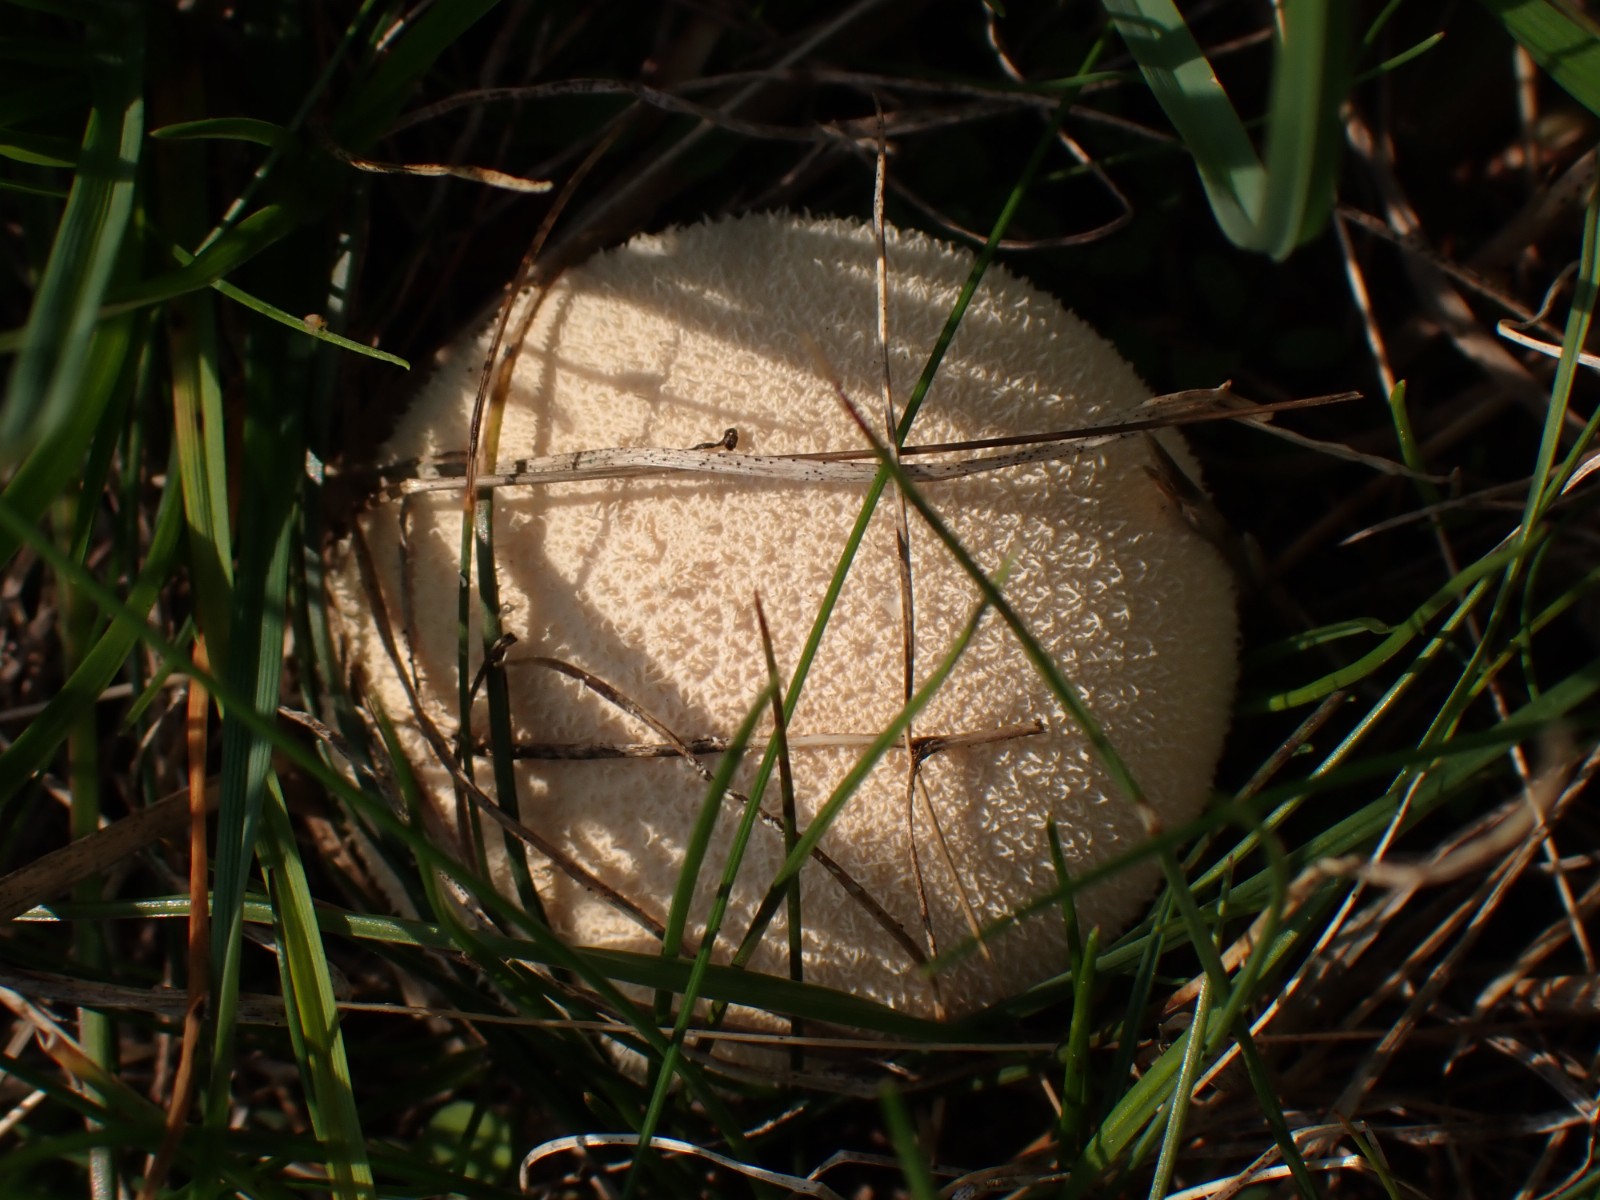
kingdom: Fungi
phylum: Basidiomycota
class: Agaricomycetes
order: Agaricales
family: Lycoperdaceae
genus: Lycoperdon
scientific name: Lycoperdon pratense
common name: flad støvbold
